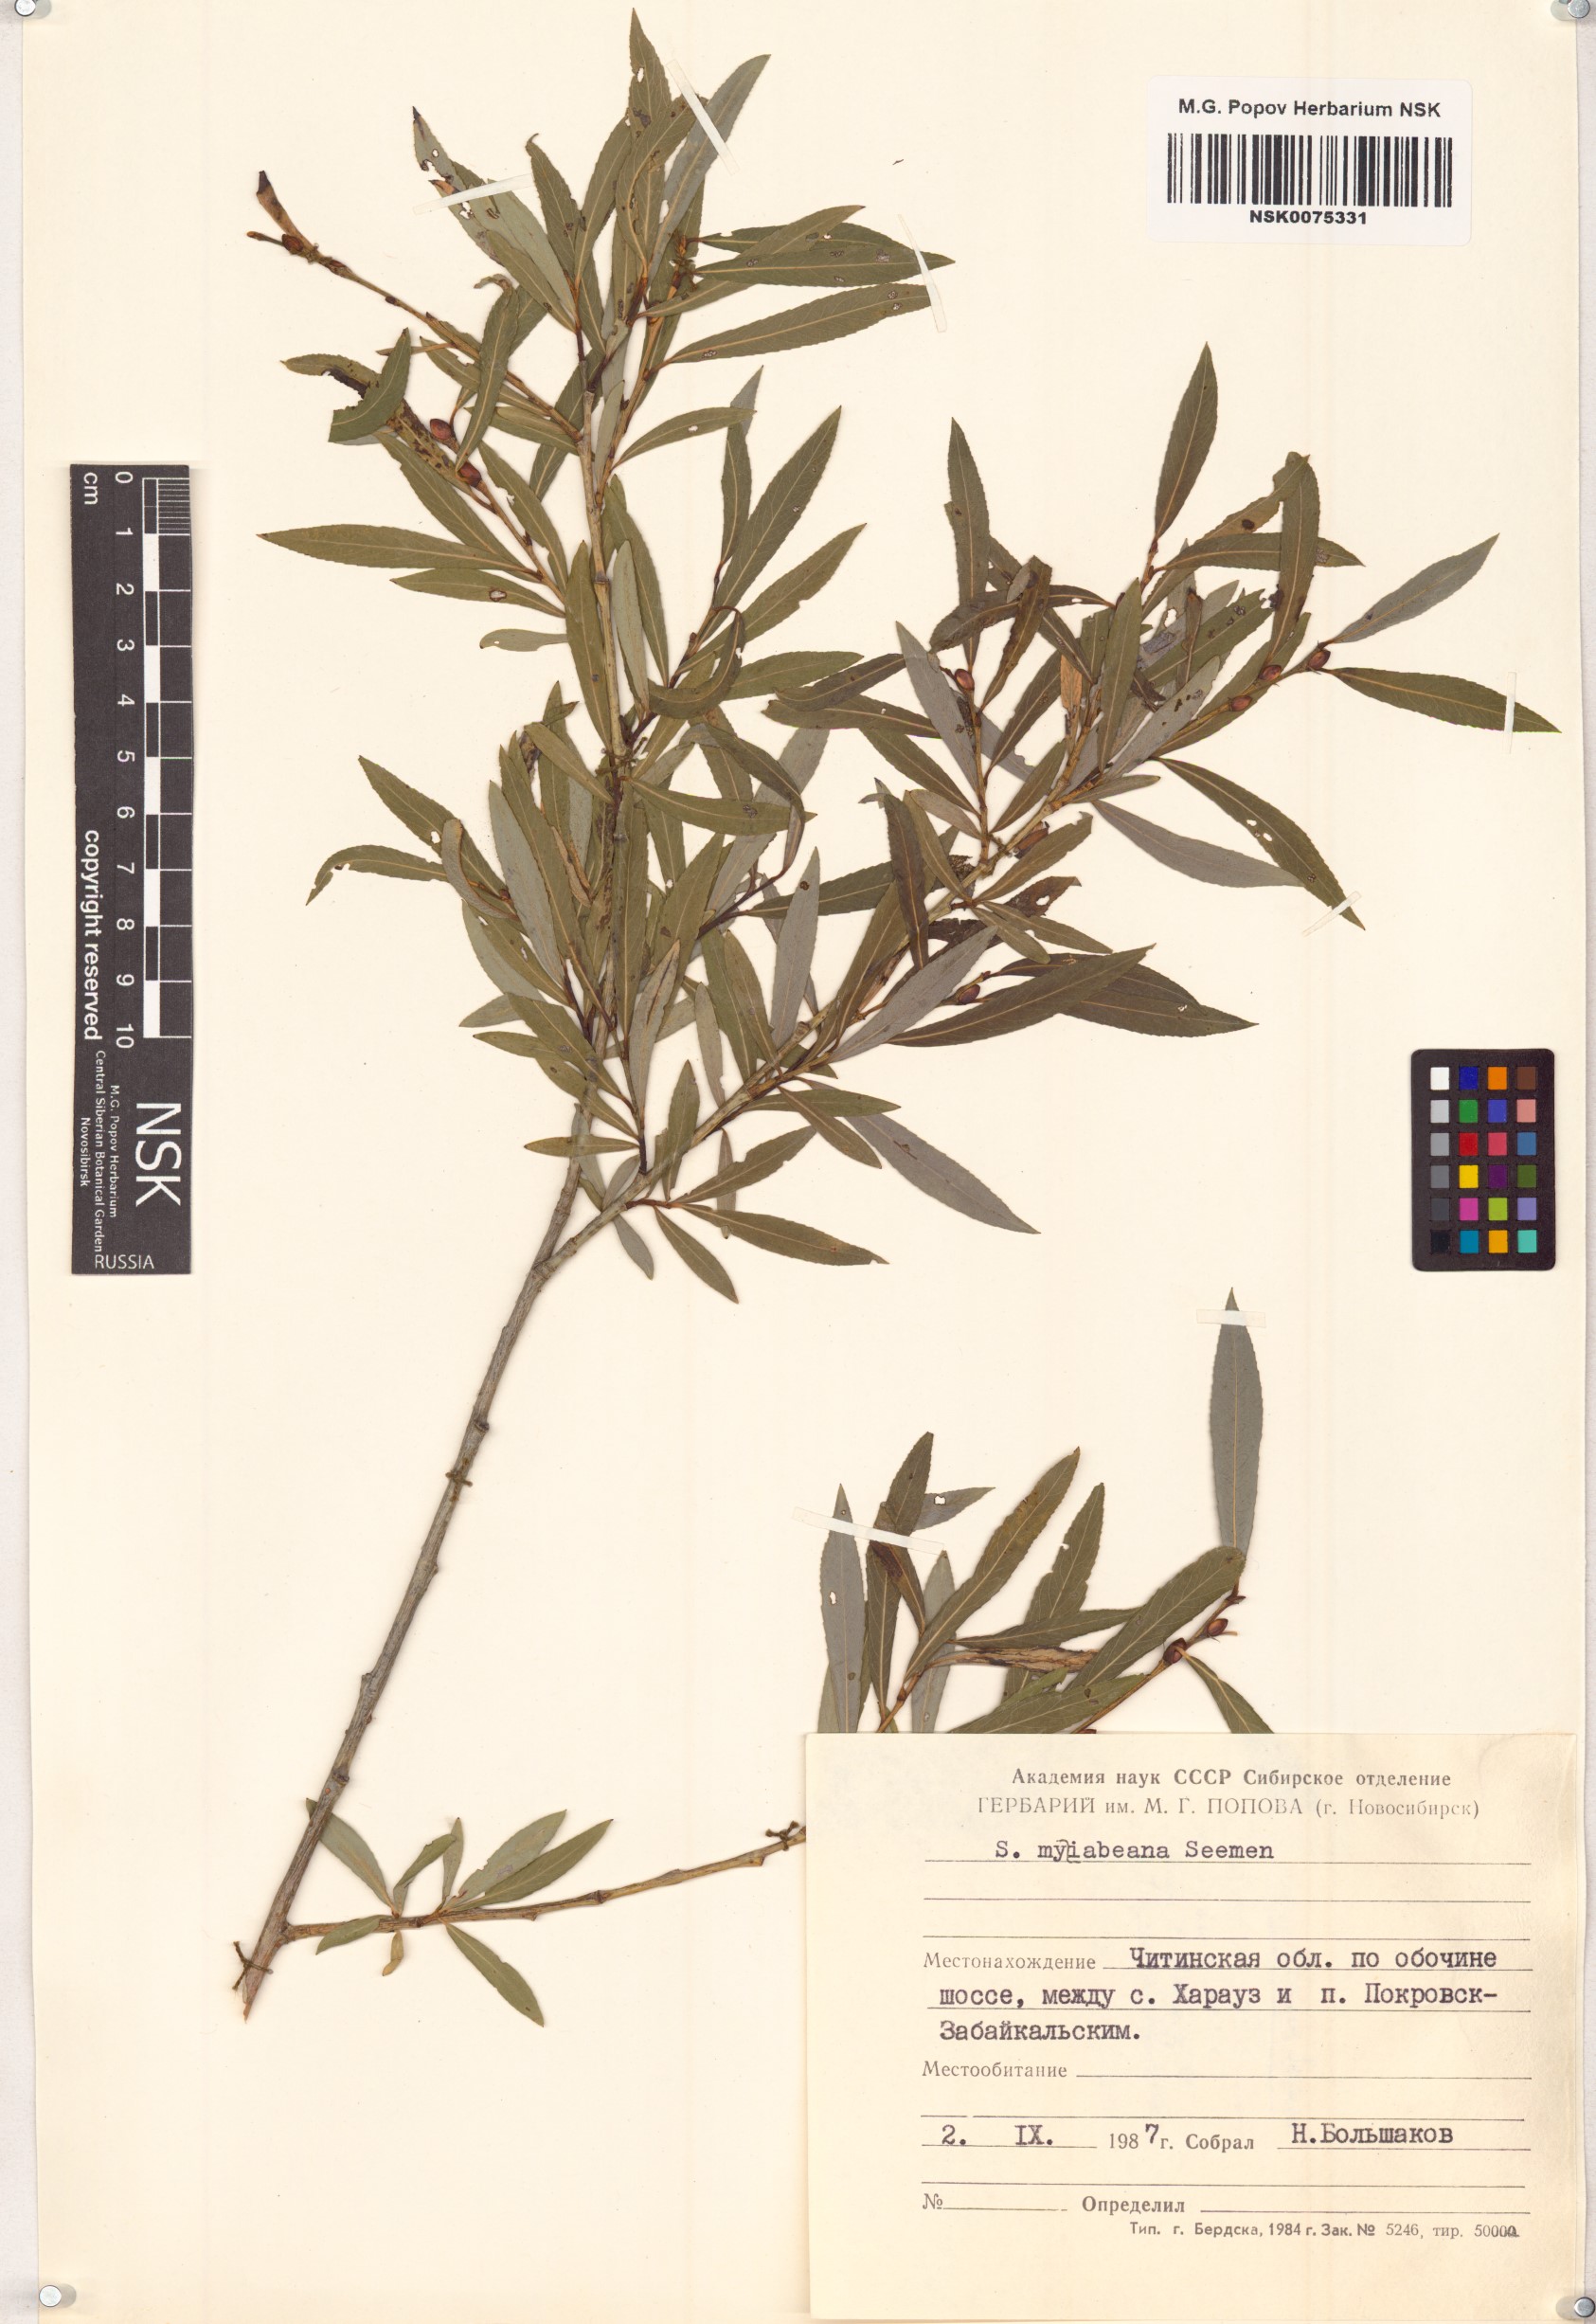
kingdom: Plantae
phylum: Tracheophyta
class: Magnoliopsida
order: Malpighiales
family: Salicaceae
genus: Salix
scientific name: Salix miyabeana
